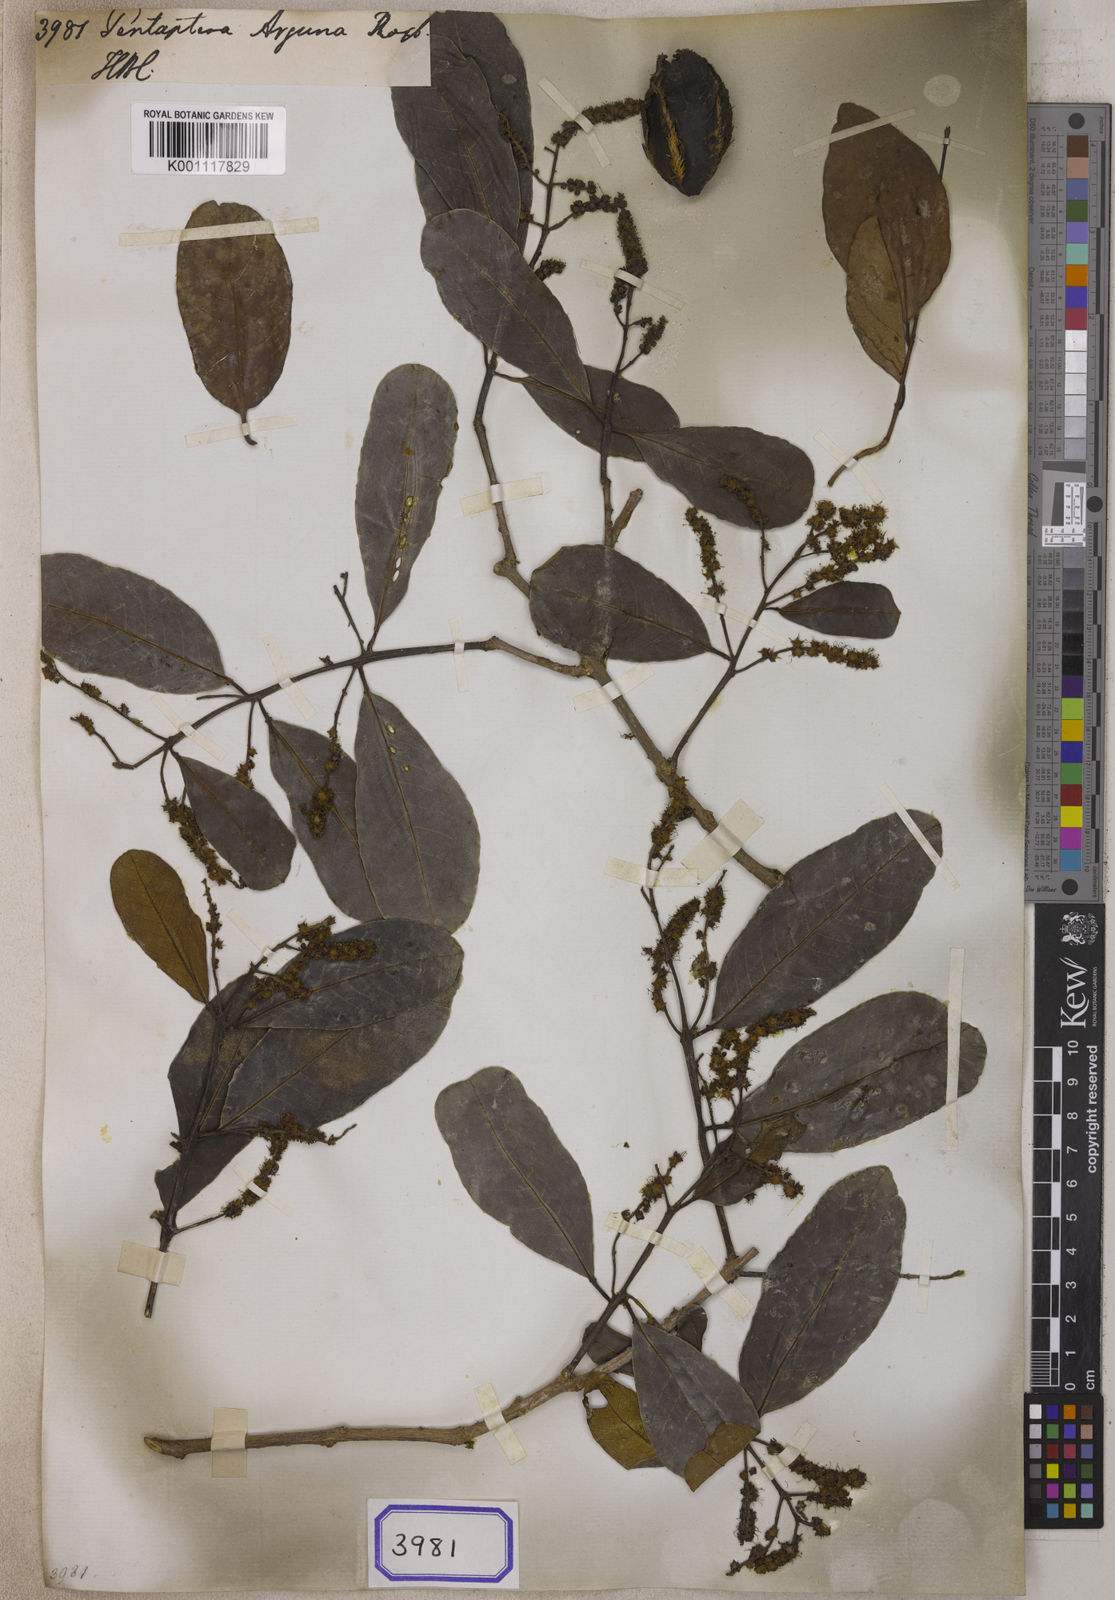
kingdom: Plantae
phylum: Tracheophyta
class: Magnoliopsida
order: Myrtales
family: Combretaceae
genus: Terminalia
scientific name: Terminalia
